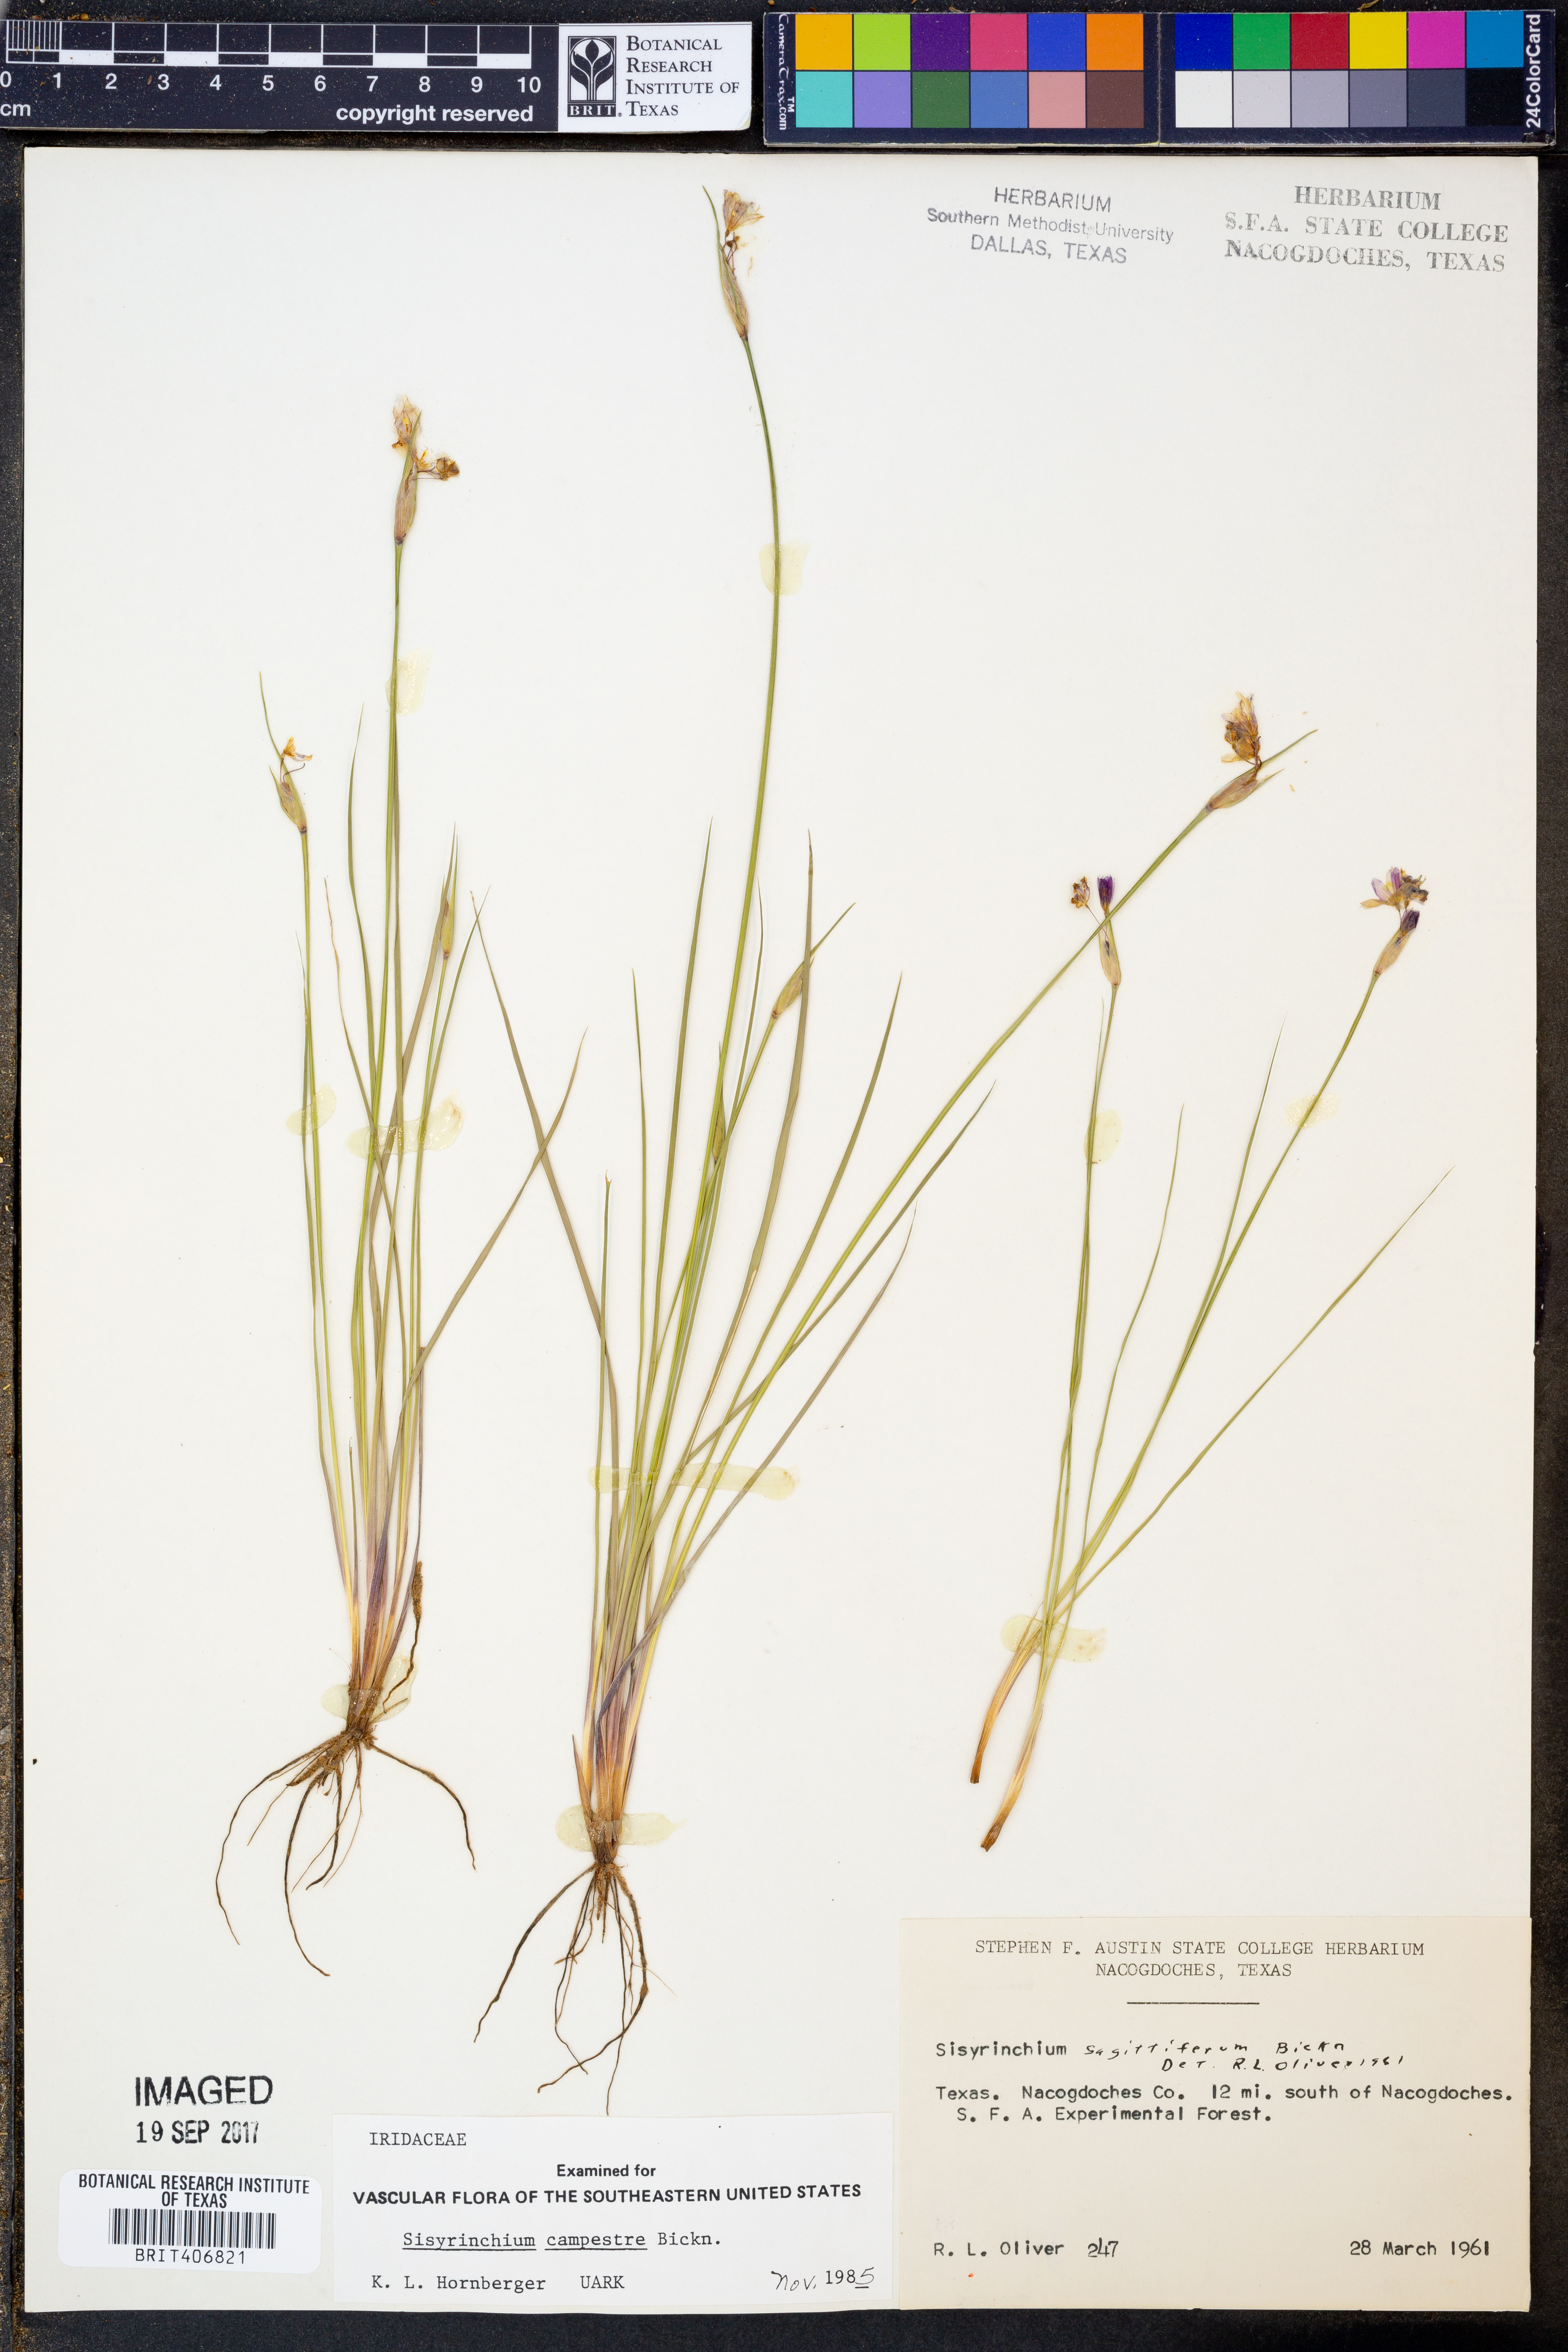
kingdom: Plantae
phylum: Tracheophyta
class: Liliopsida
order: Asparagales
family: Iridaceae
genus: Sisyrinchium
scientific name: Sisyrinchium campestre
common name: Prairie blue-eyed-grass
